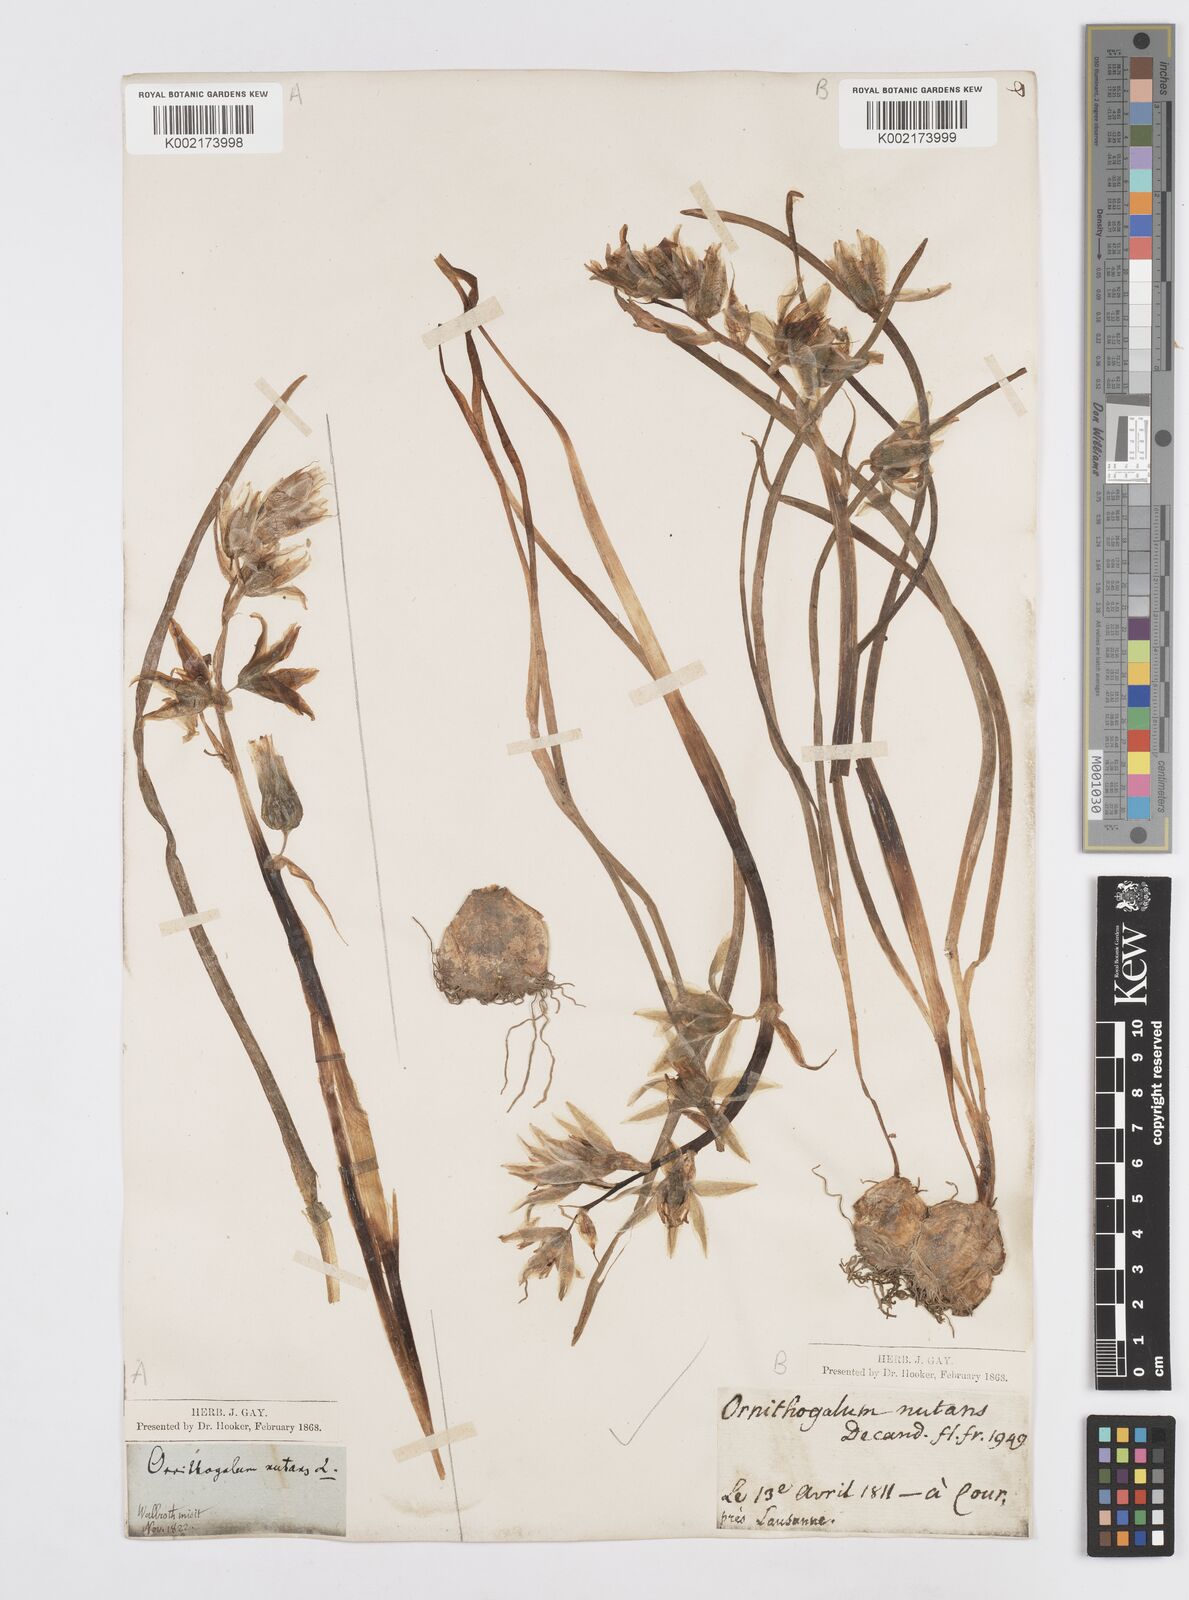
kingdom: Plantae
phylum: Tracheophyta
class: Liliopsida
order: Asparagales
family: Asparagaceae
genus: Ornithogalum
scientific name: Ornithogalum nutans
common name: Drooping star-of-bethlehem
